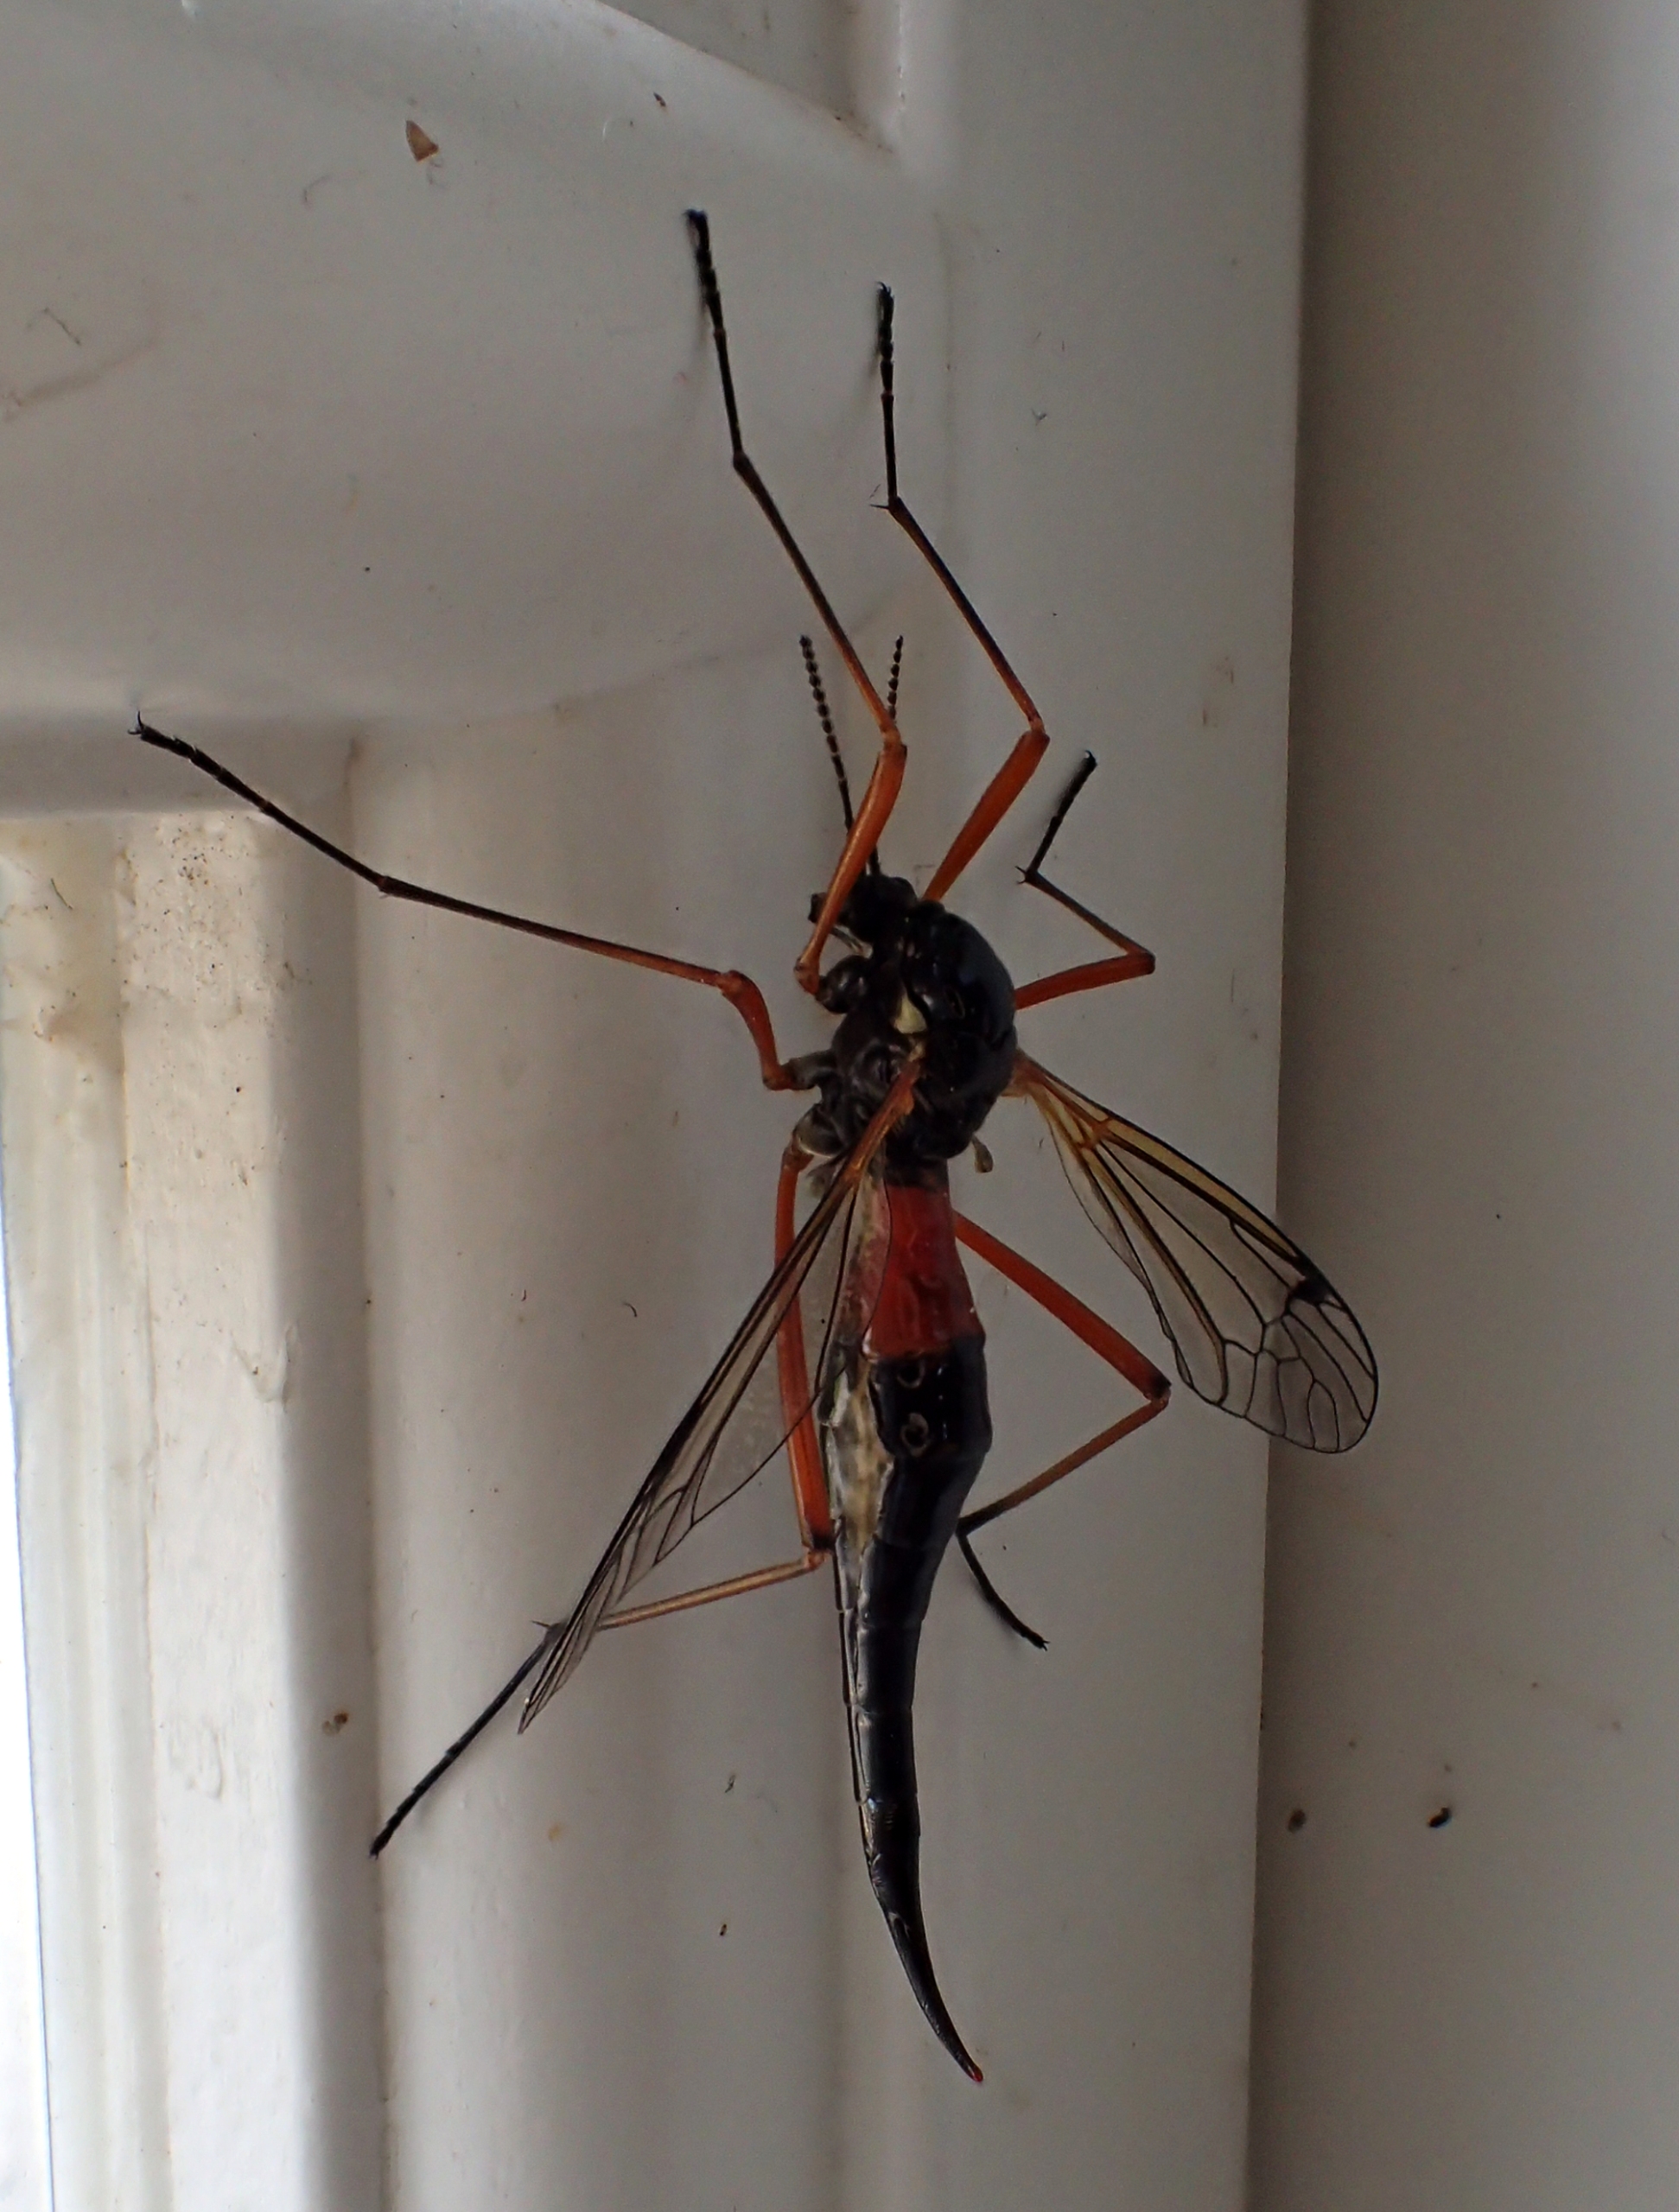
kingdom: Animalia
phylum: Arthropoda
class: Insecta
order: Diptera
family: Tipulidae
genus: Tanyptera
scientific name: Tanyptera atrata
